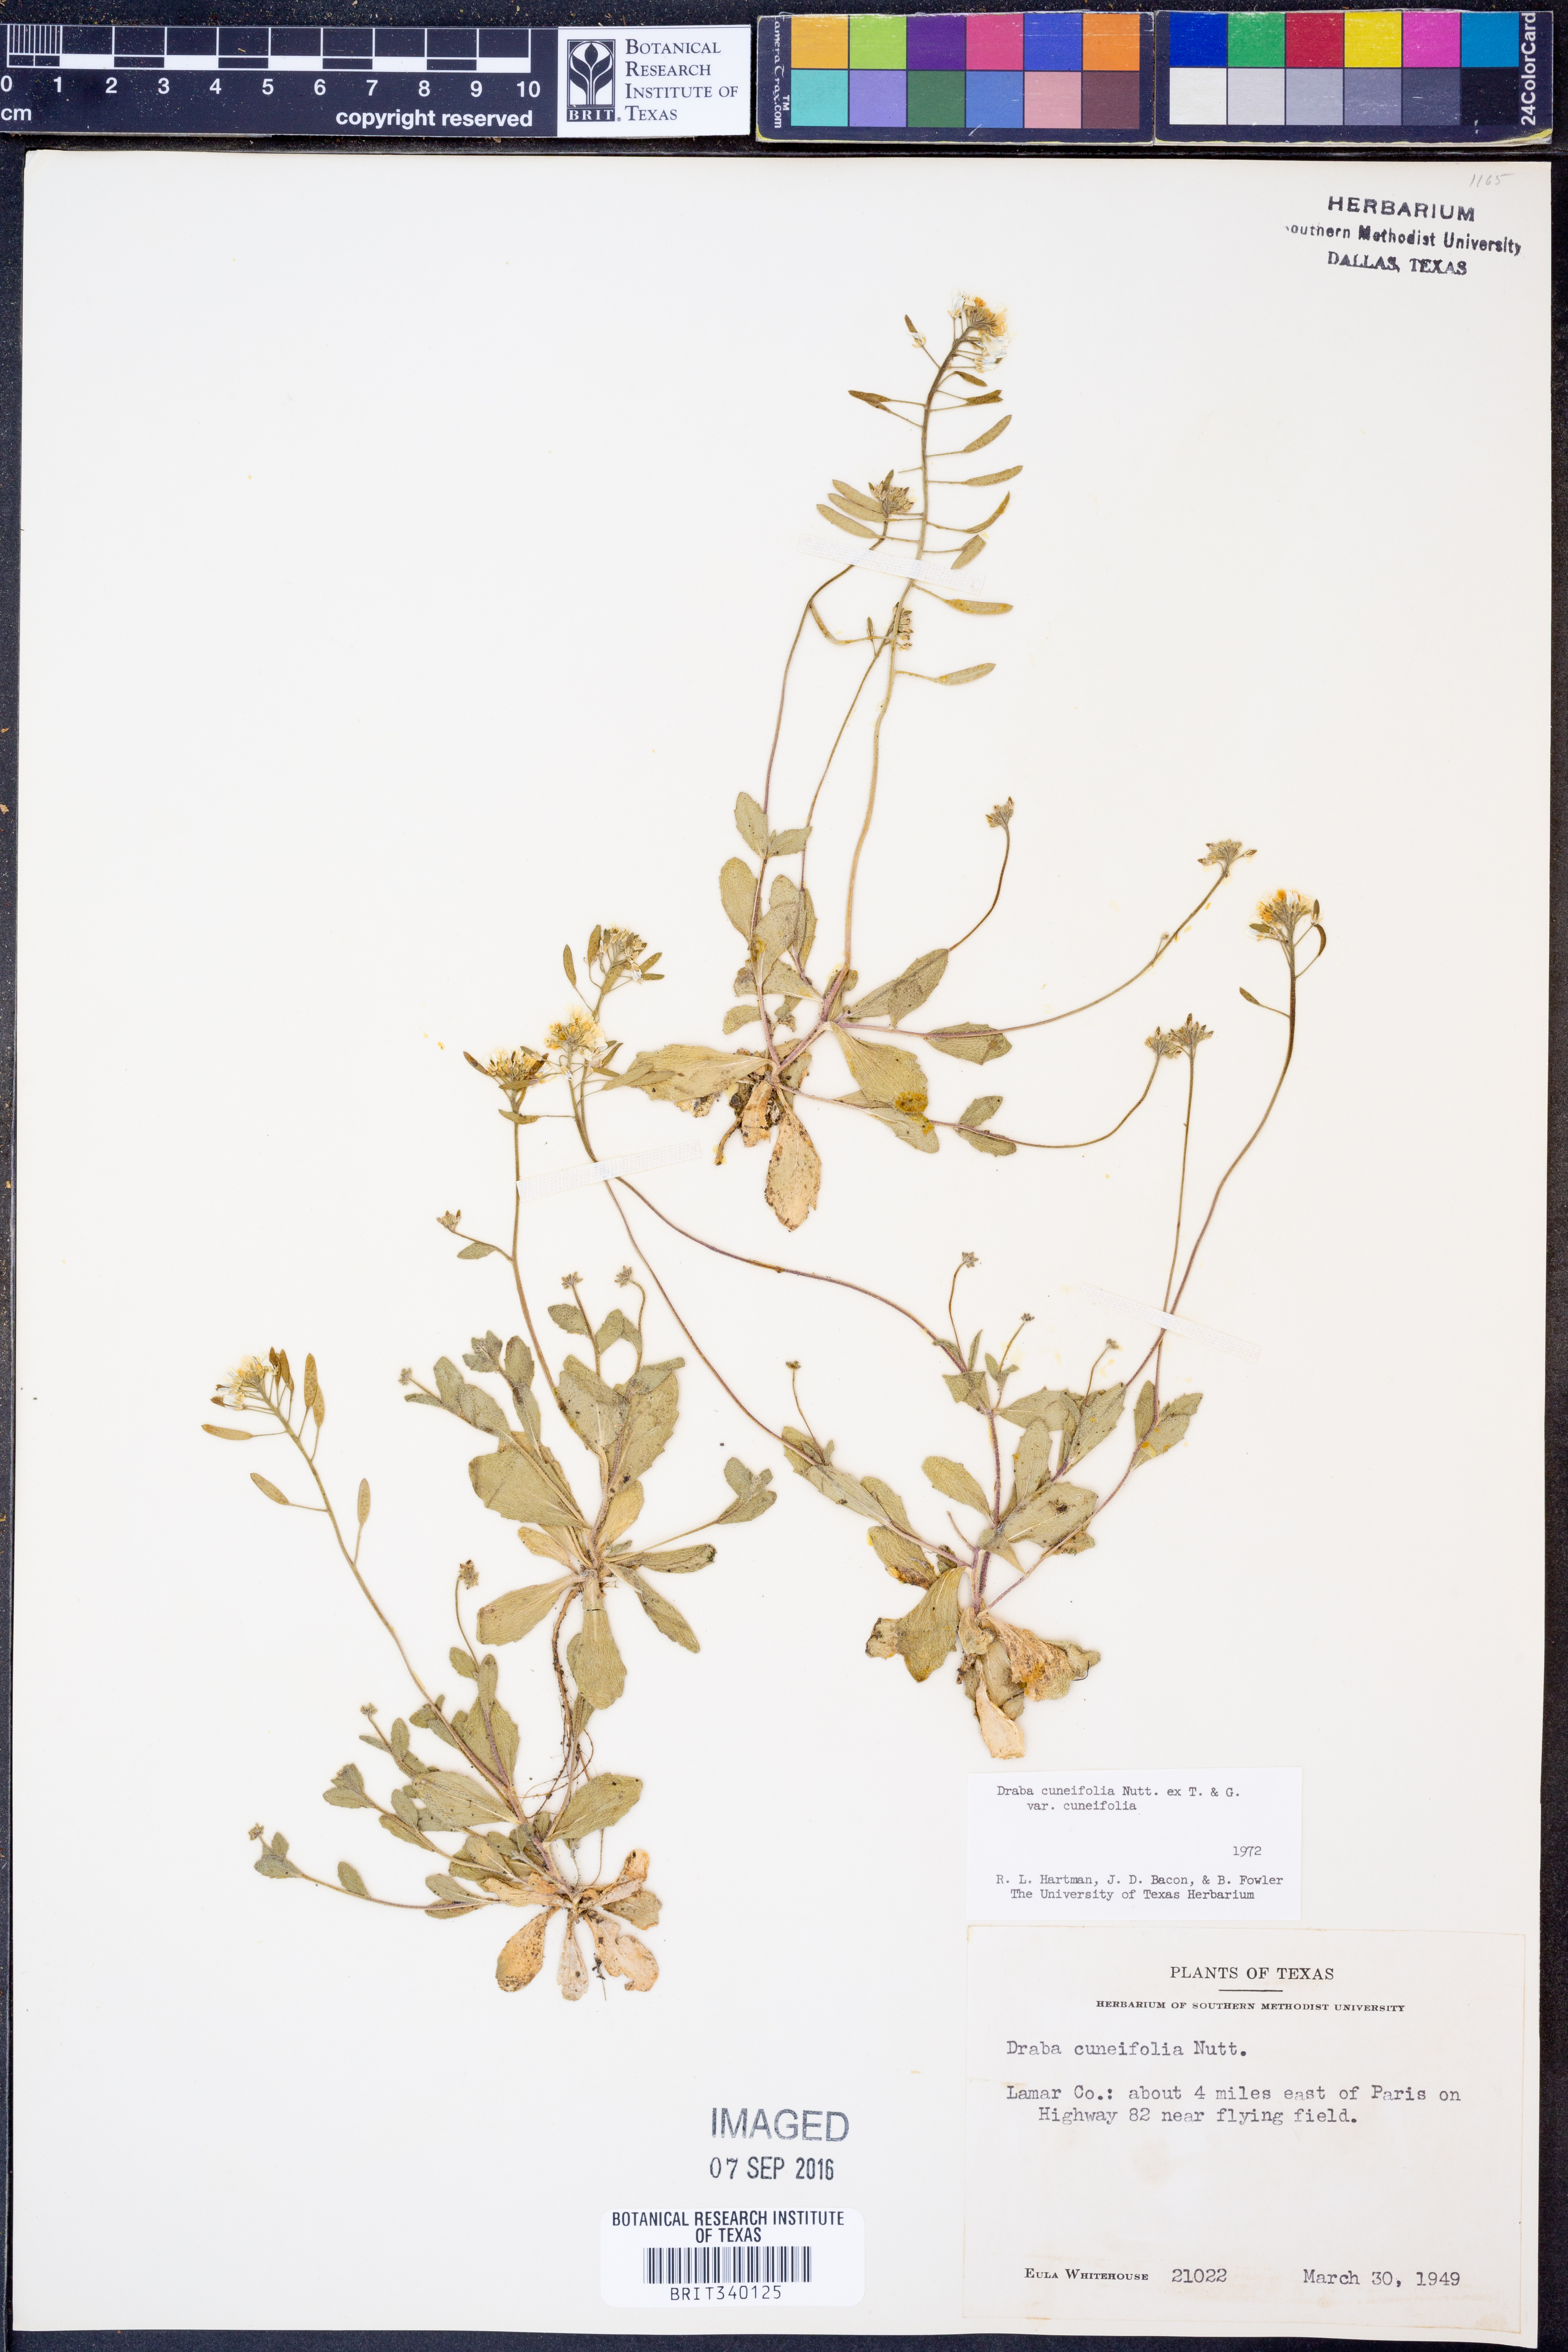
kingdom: Plantae
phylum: Tracheophyta
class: Magnoliopsida
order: Brassicales
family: Brassicaceae
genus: Tomostima
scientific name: Tomostima cuneifolia
